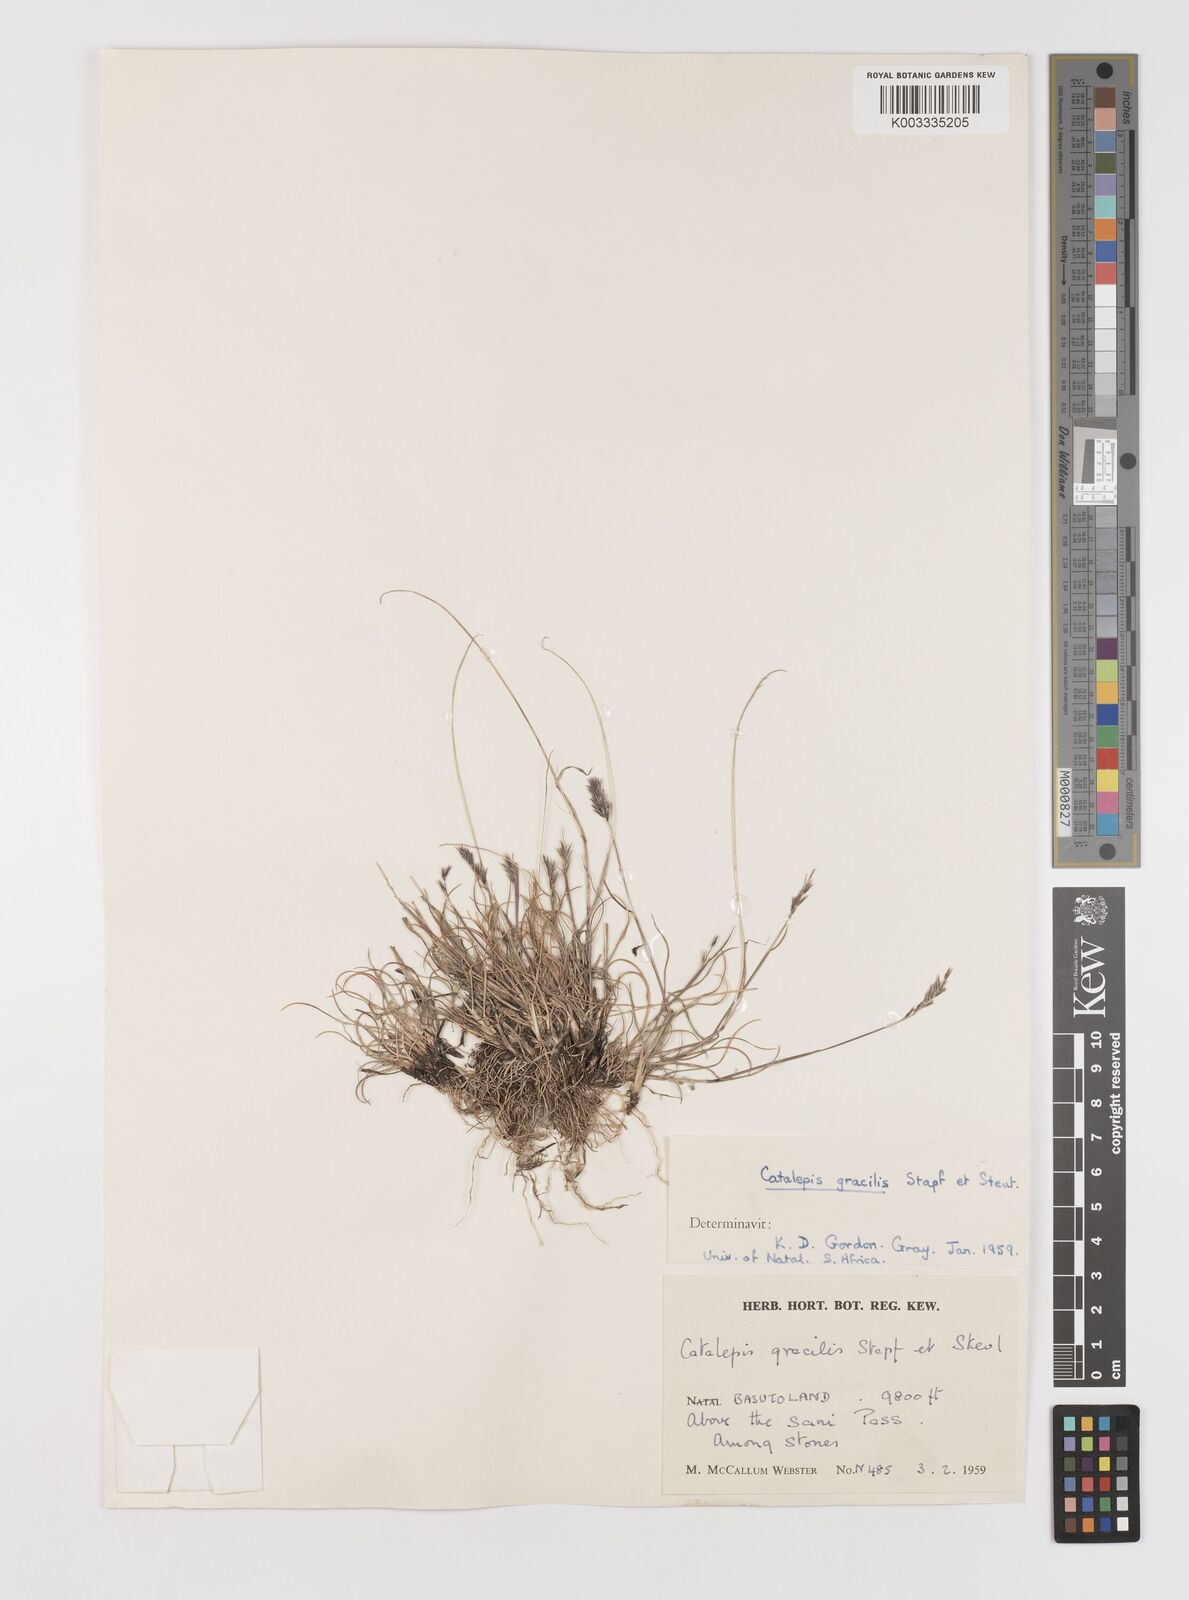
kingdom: Plantae
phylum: Tracheophyta
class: Liliopsida
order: Poales
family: Poaceae
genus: Catalepis
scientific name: Catalepis gracilis
